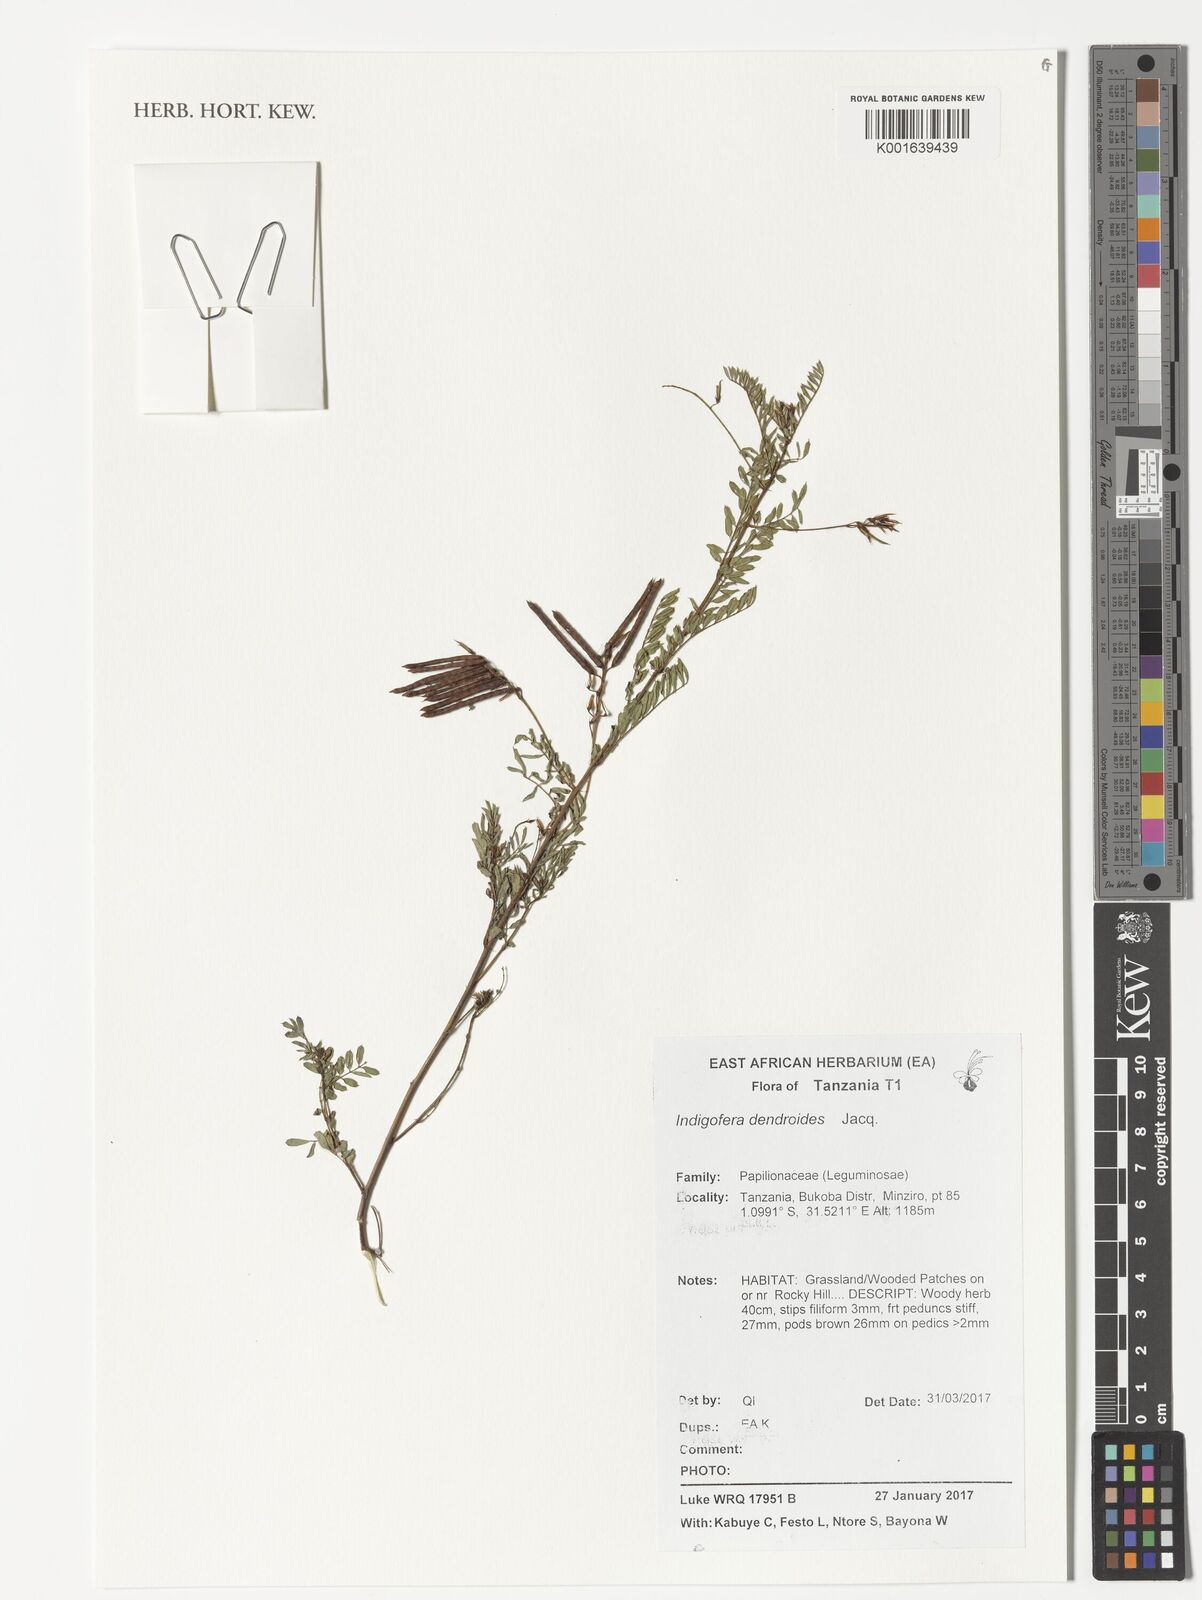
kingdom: Plantae
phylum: Tracheophyta
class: Magnoliopsida
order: Fabales
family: Fabaceae
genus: Indigofera
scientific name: Indigofera dendroides
